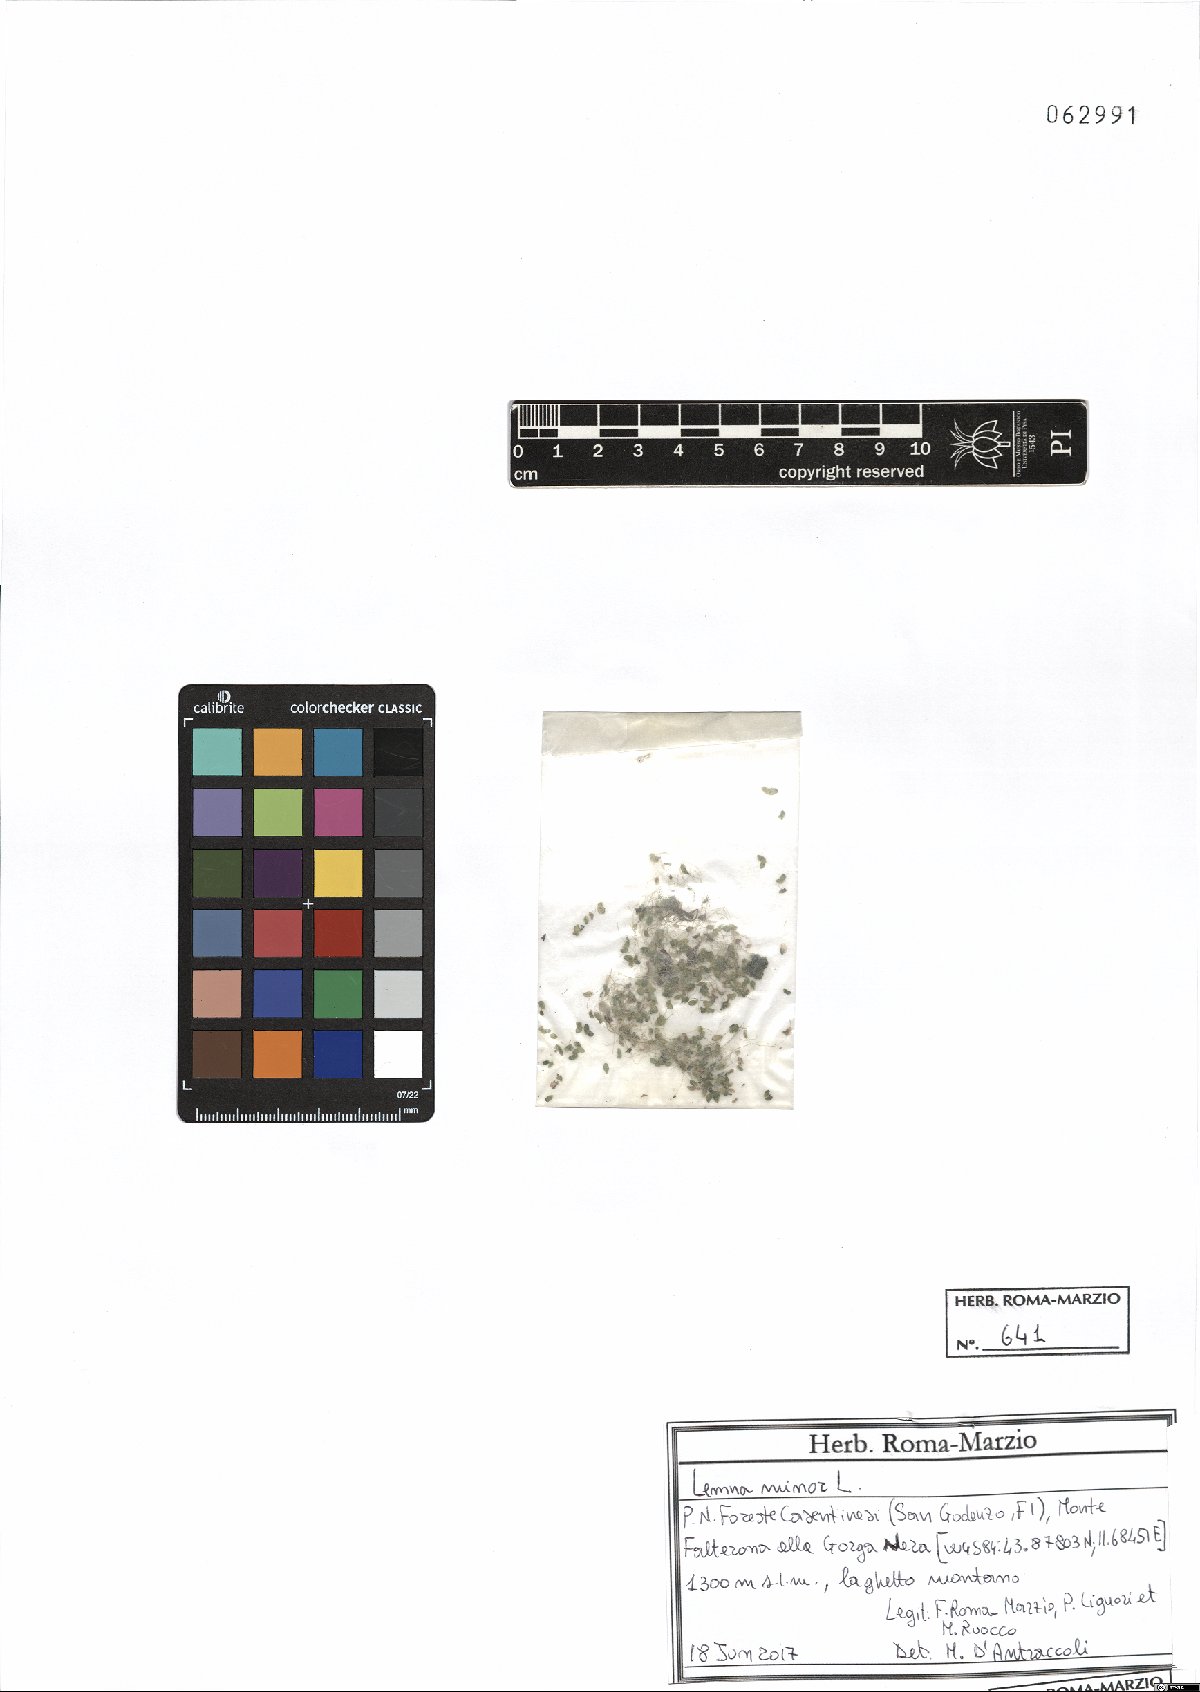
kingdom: Plantae
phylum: Tracheophyta
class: Liliopsida
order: Alismatales
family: Araceae
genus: Lemna
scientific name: Lemna minor
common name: Common duckweed
